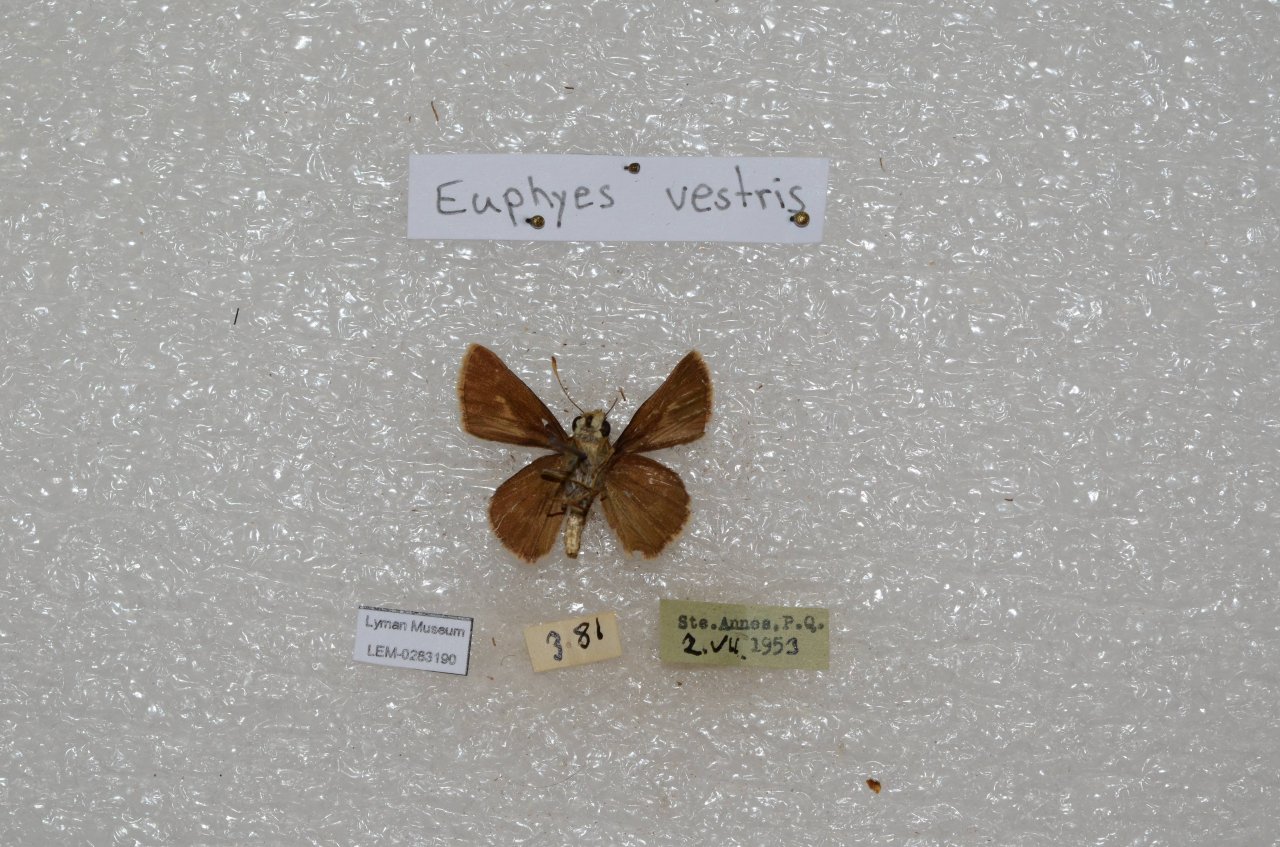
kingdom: Animalia
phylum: Arthropoda
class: Insecta
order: Lepidoptera
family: Hesperiidae
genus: Euphyes
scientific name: Euphyes vestris
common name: Dun Skipper
